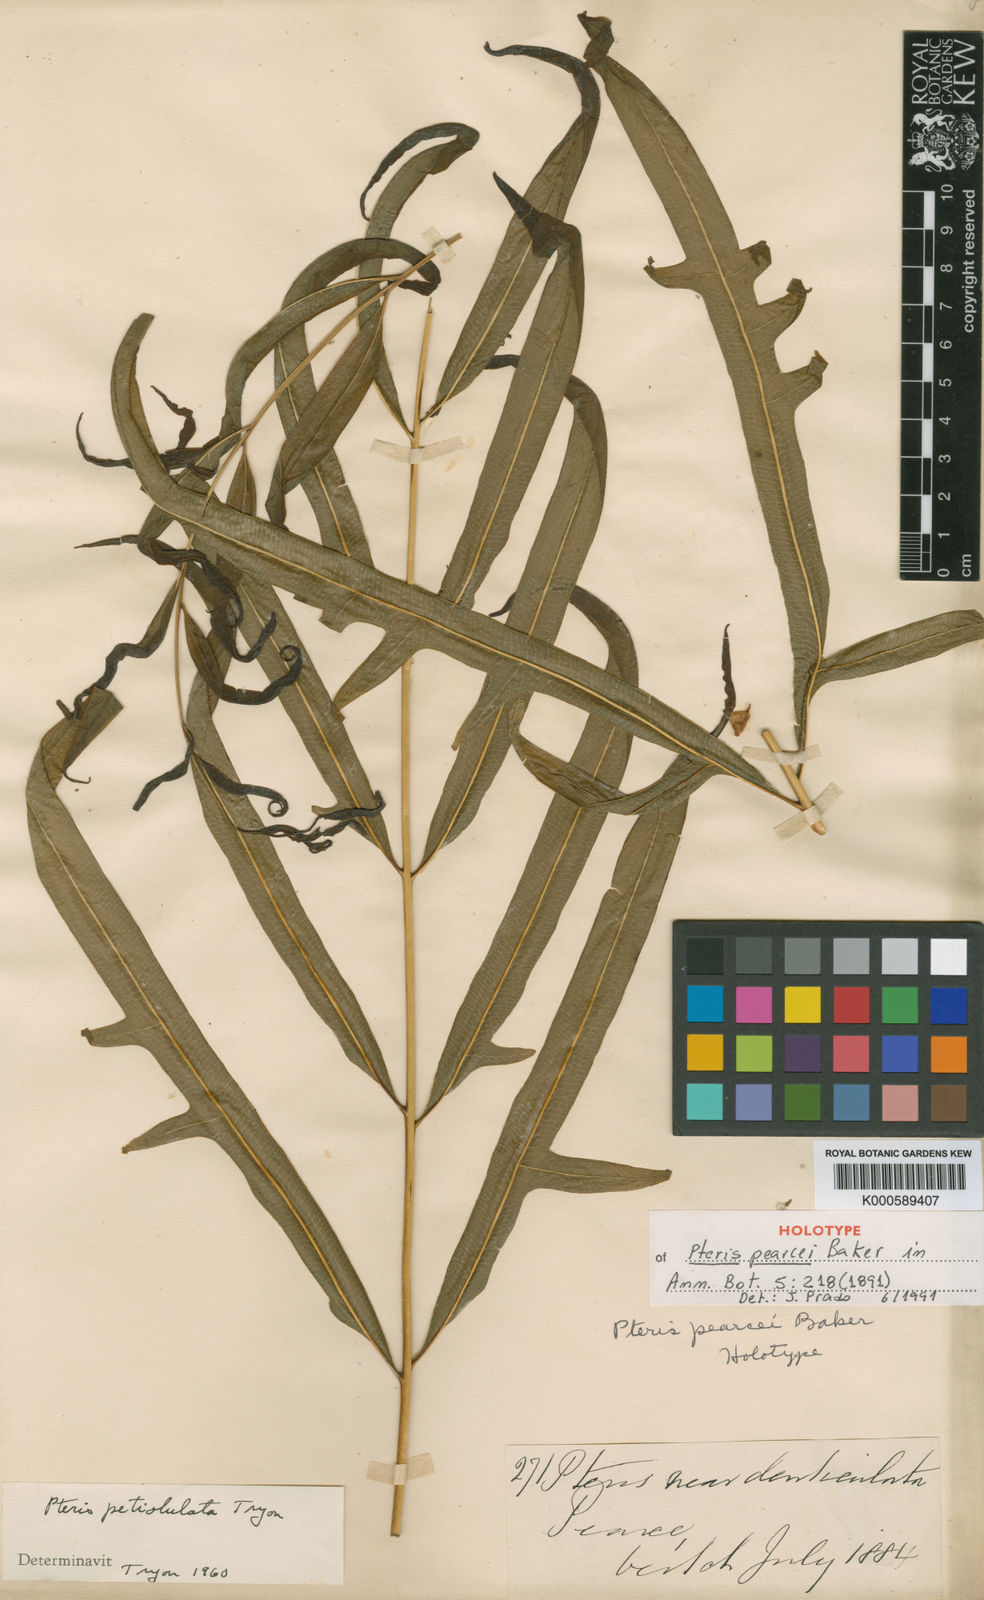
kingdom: Plantae
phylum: Tracheophyta
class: Polypodiopsida
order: Polypodiales
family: Pteridaceae
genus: Pteris
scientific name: Pteris pearcei
